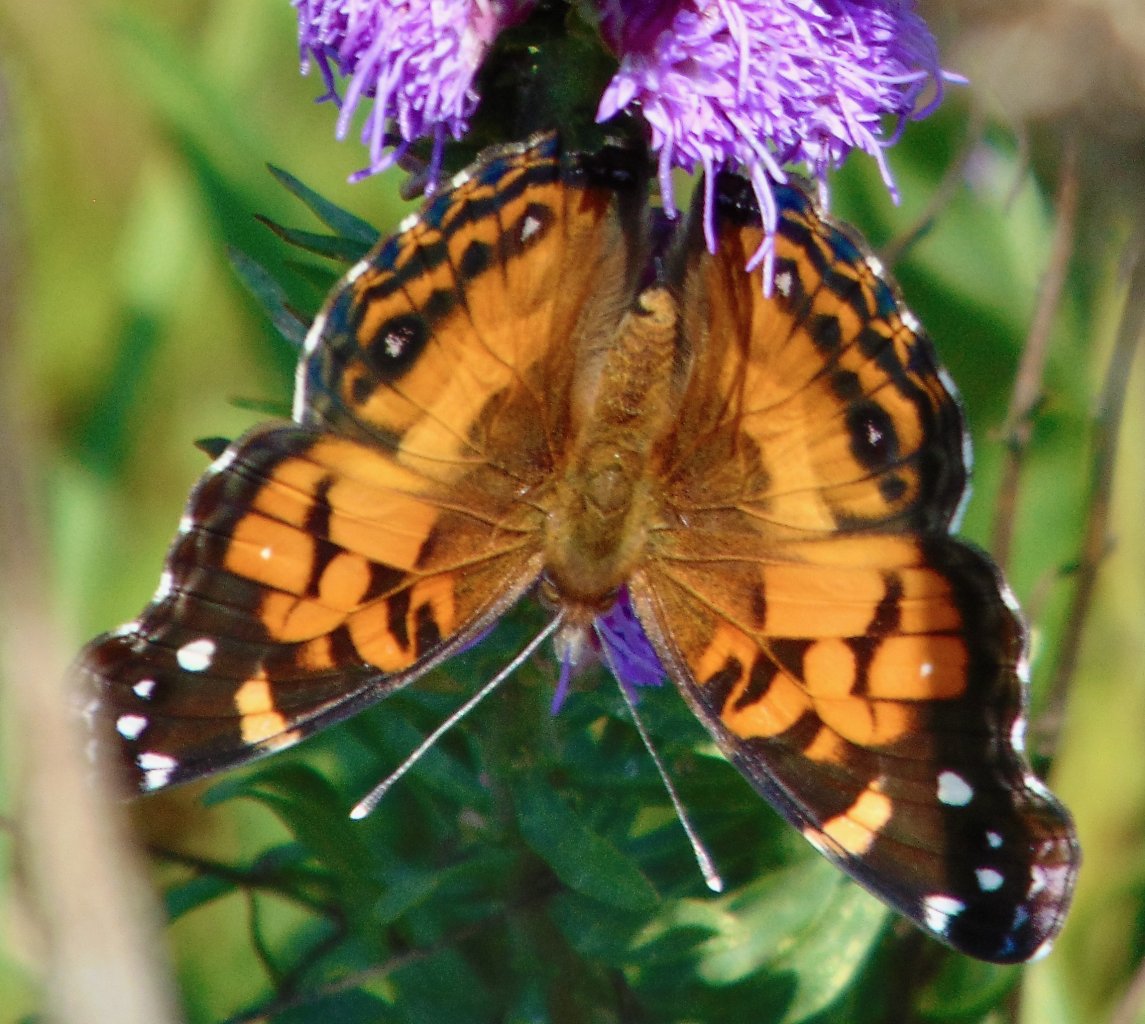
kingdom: Animalia
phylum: Arthropoda
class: Insecta
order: Lepidoptera
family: Nymphalidae
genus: Vanessa
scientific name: Vanessa virginiensis
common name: American Lady
